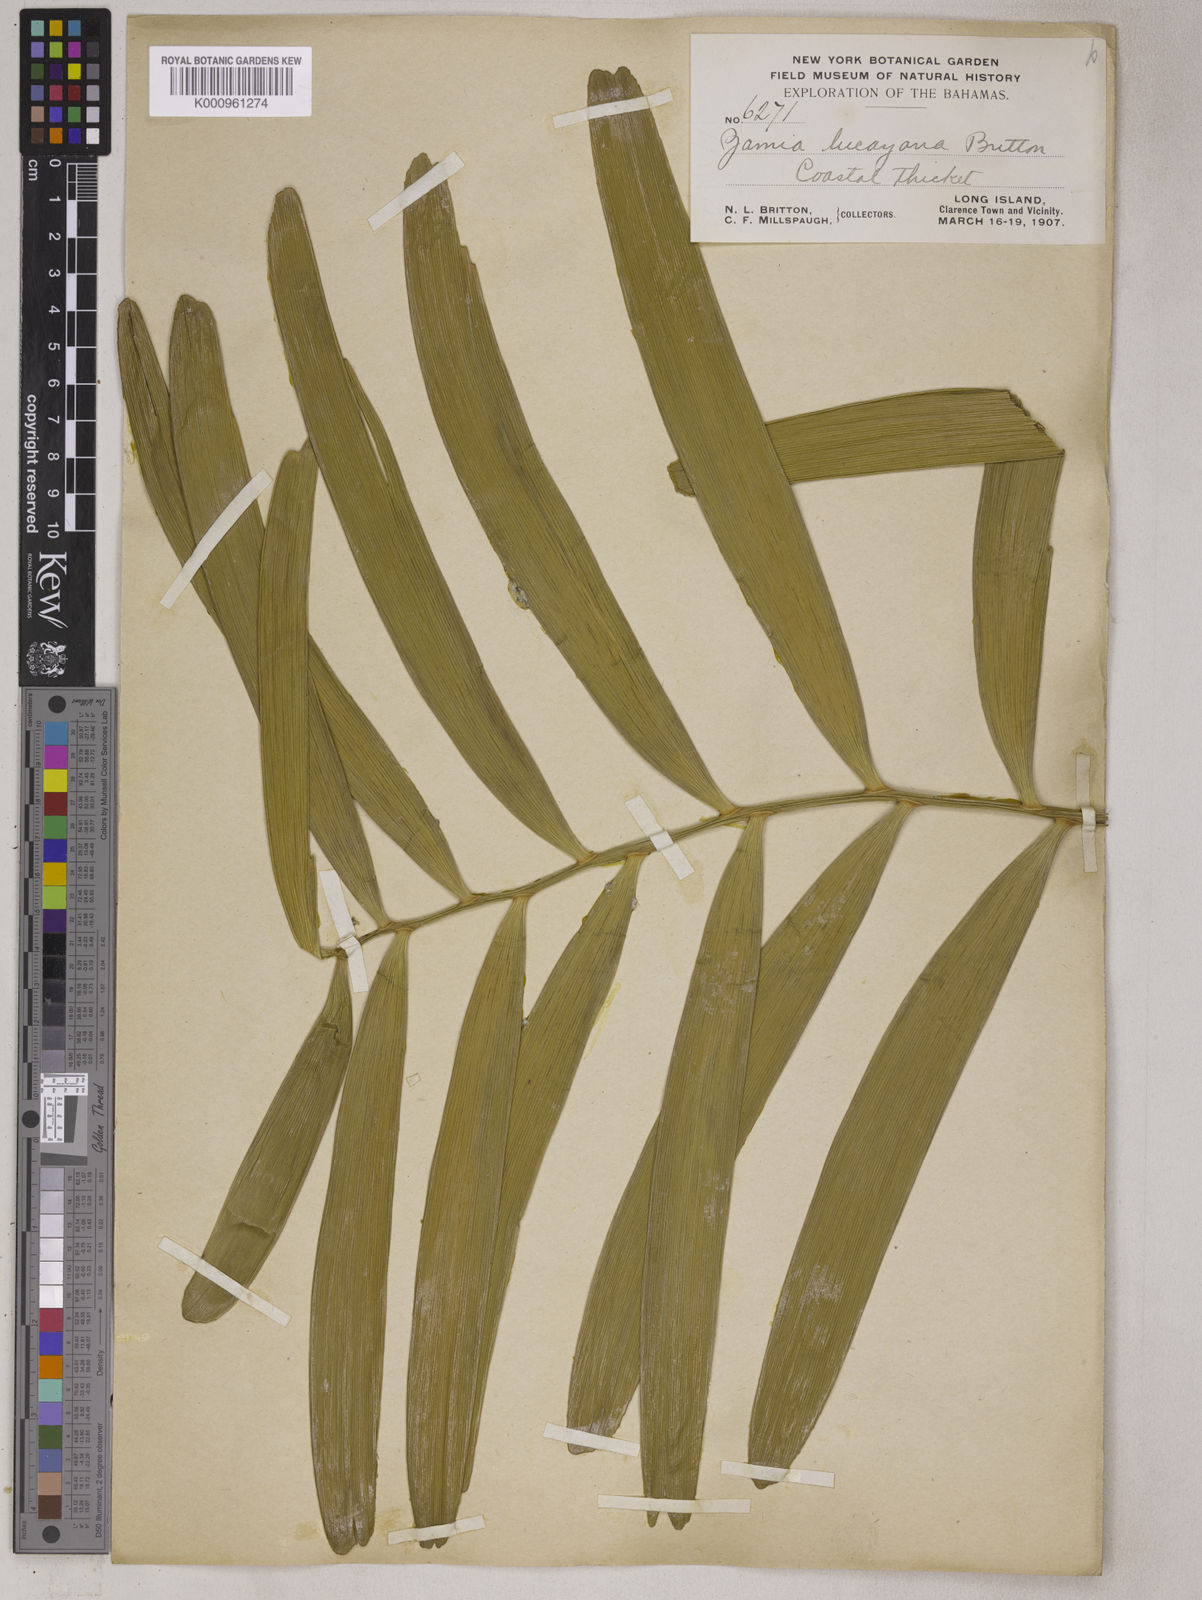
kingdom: Plantae
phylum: Tracheophyta
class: Cycadopsida
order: Cycadales
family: Zamiaceae
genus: Zamia
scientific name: Zamia muricata
